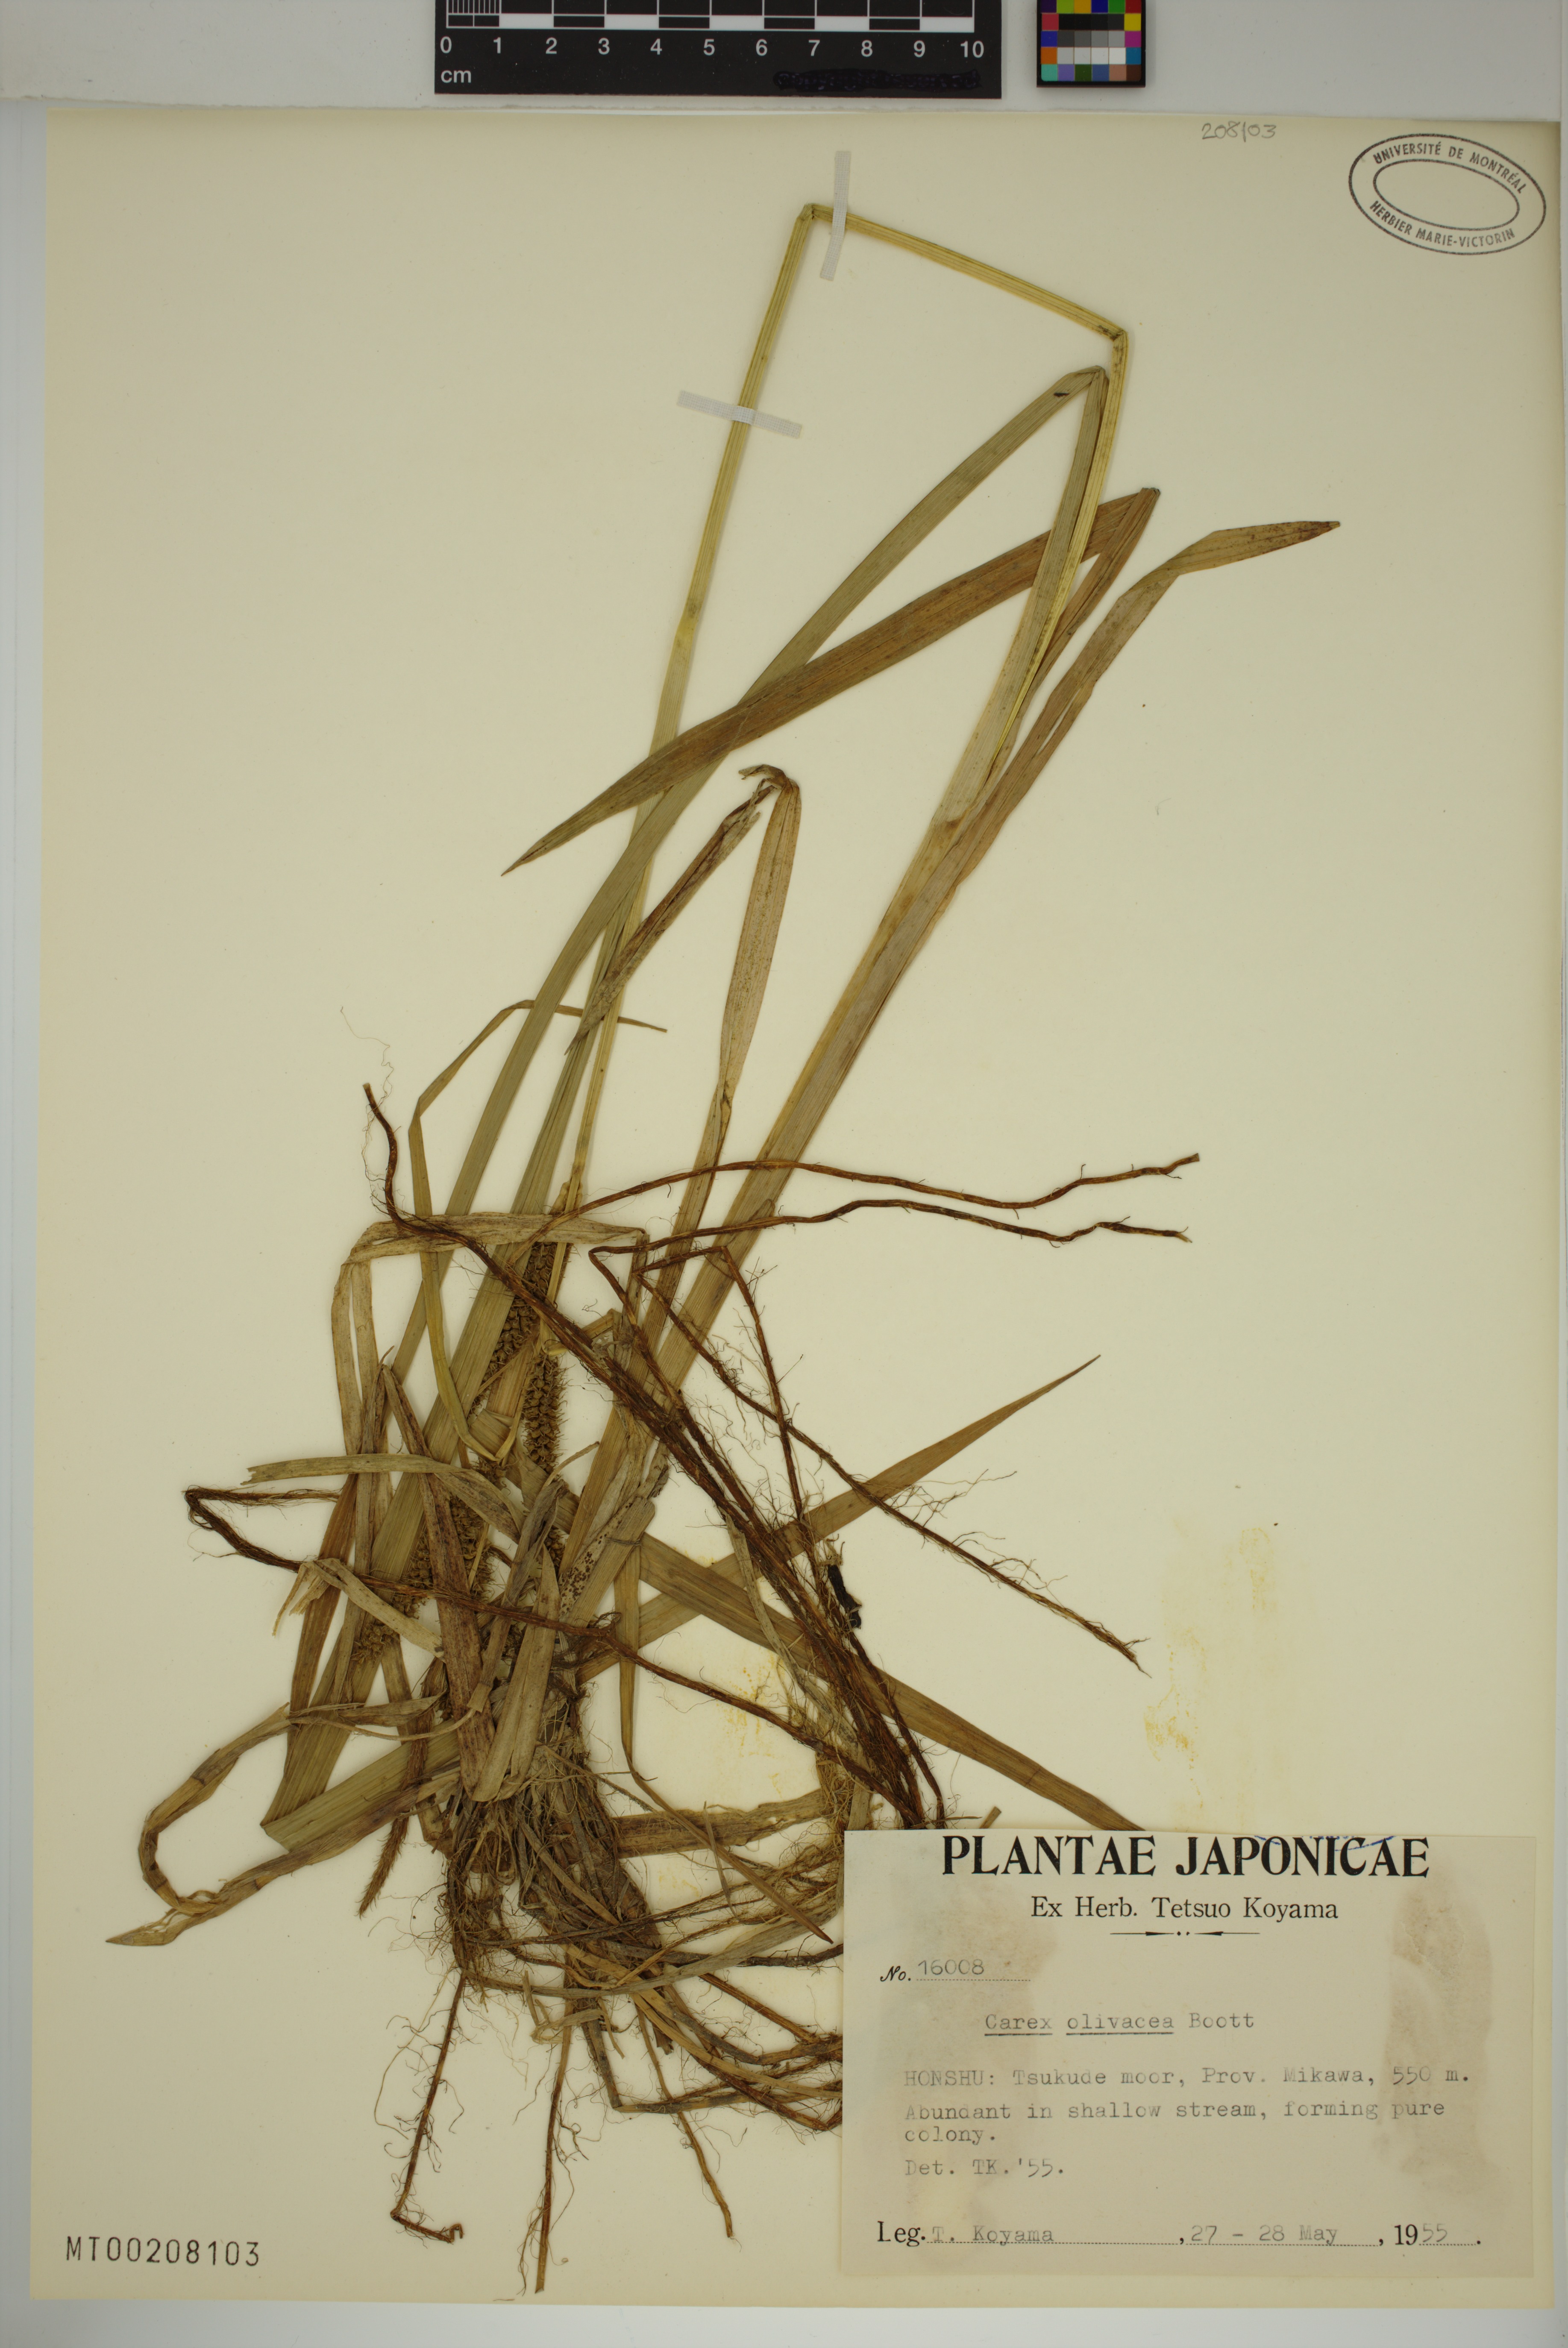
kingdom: Plantae
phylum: Tracheophyta
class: Liliopsida
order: Poales
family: Cyperaceae
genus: Carex
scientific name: Carex olivacea
